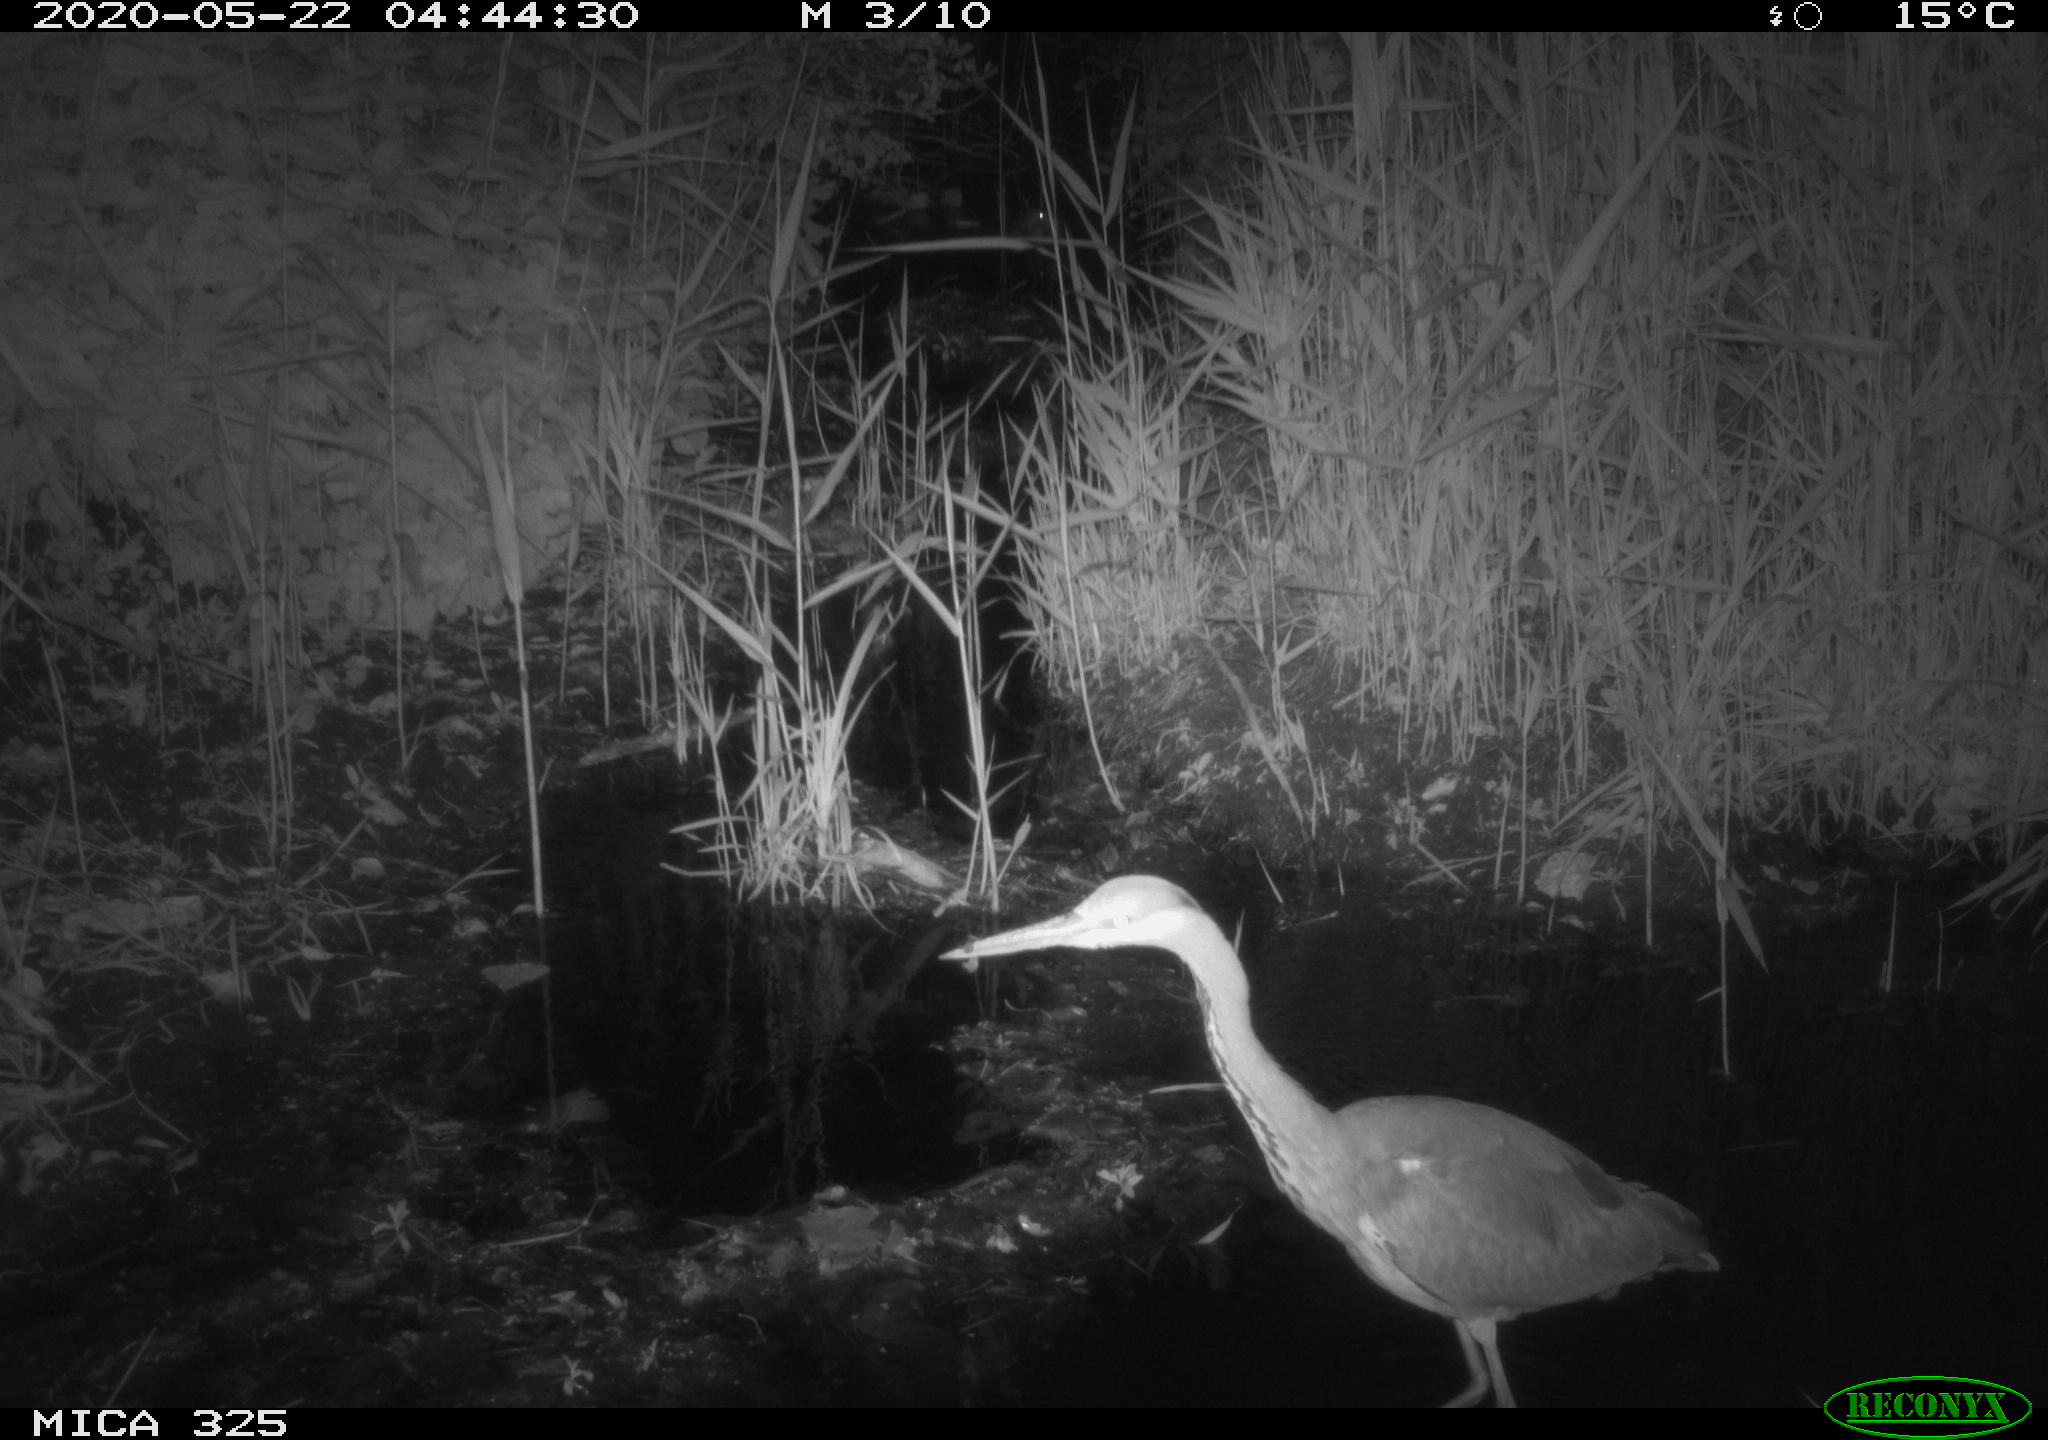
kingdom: Animalia
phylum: Chordata
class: Aves
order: Pelecaniformes
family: Ardeidae
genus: Ardea
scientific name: Ardea cinerea
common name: Grey heron
